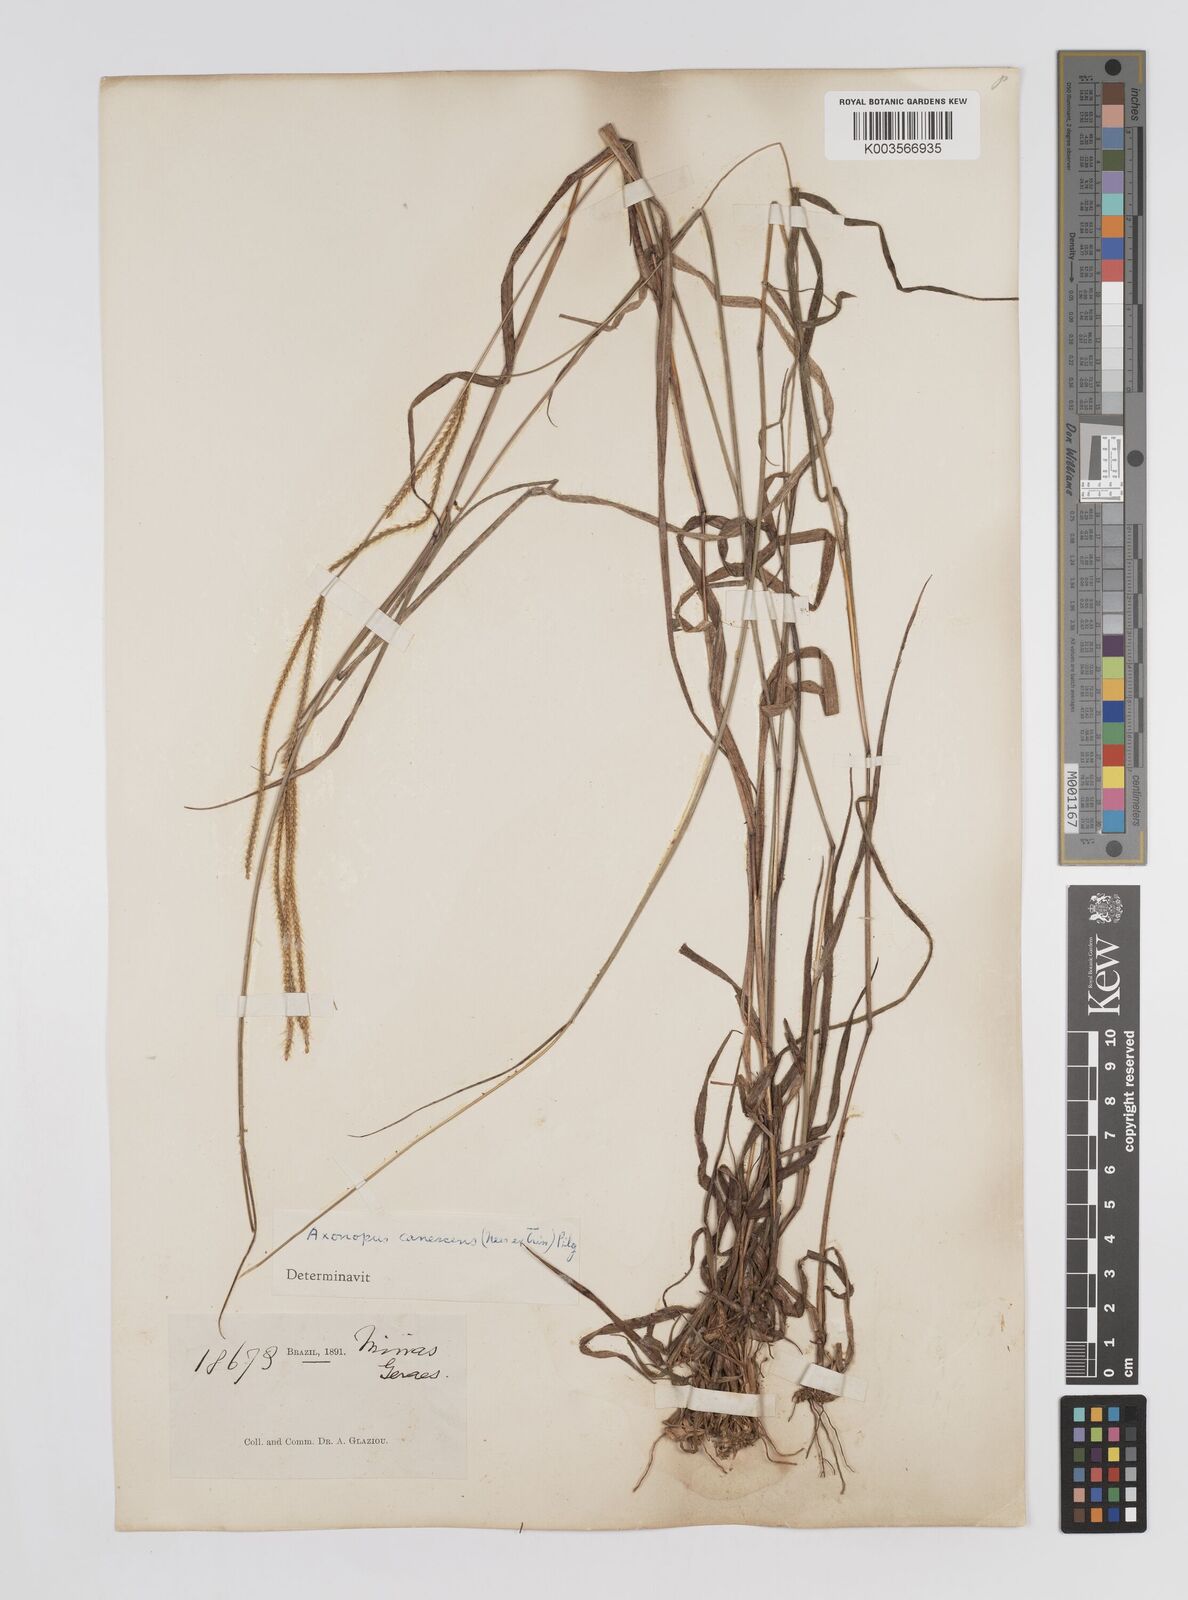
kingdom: Plantae
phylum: Tracheophyta
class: Liliopsida
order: Poales
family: Poaceae
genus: Axonopus
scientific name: Axonopus aureus
